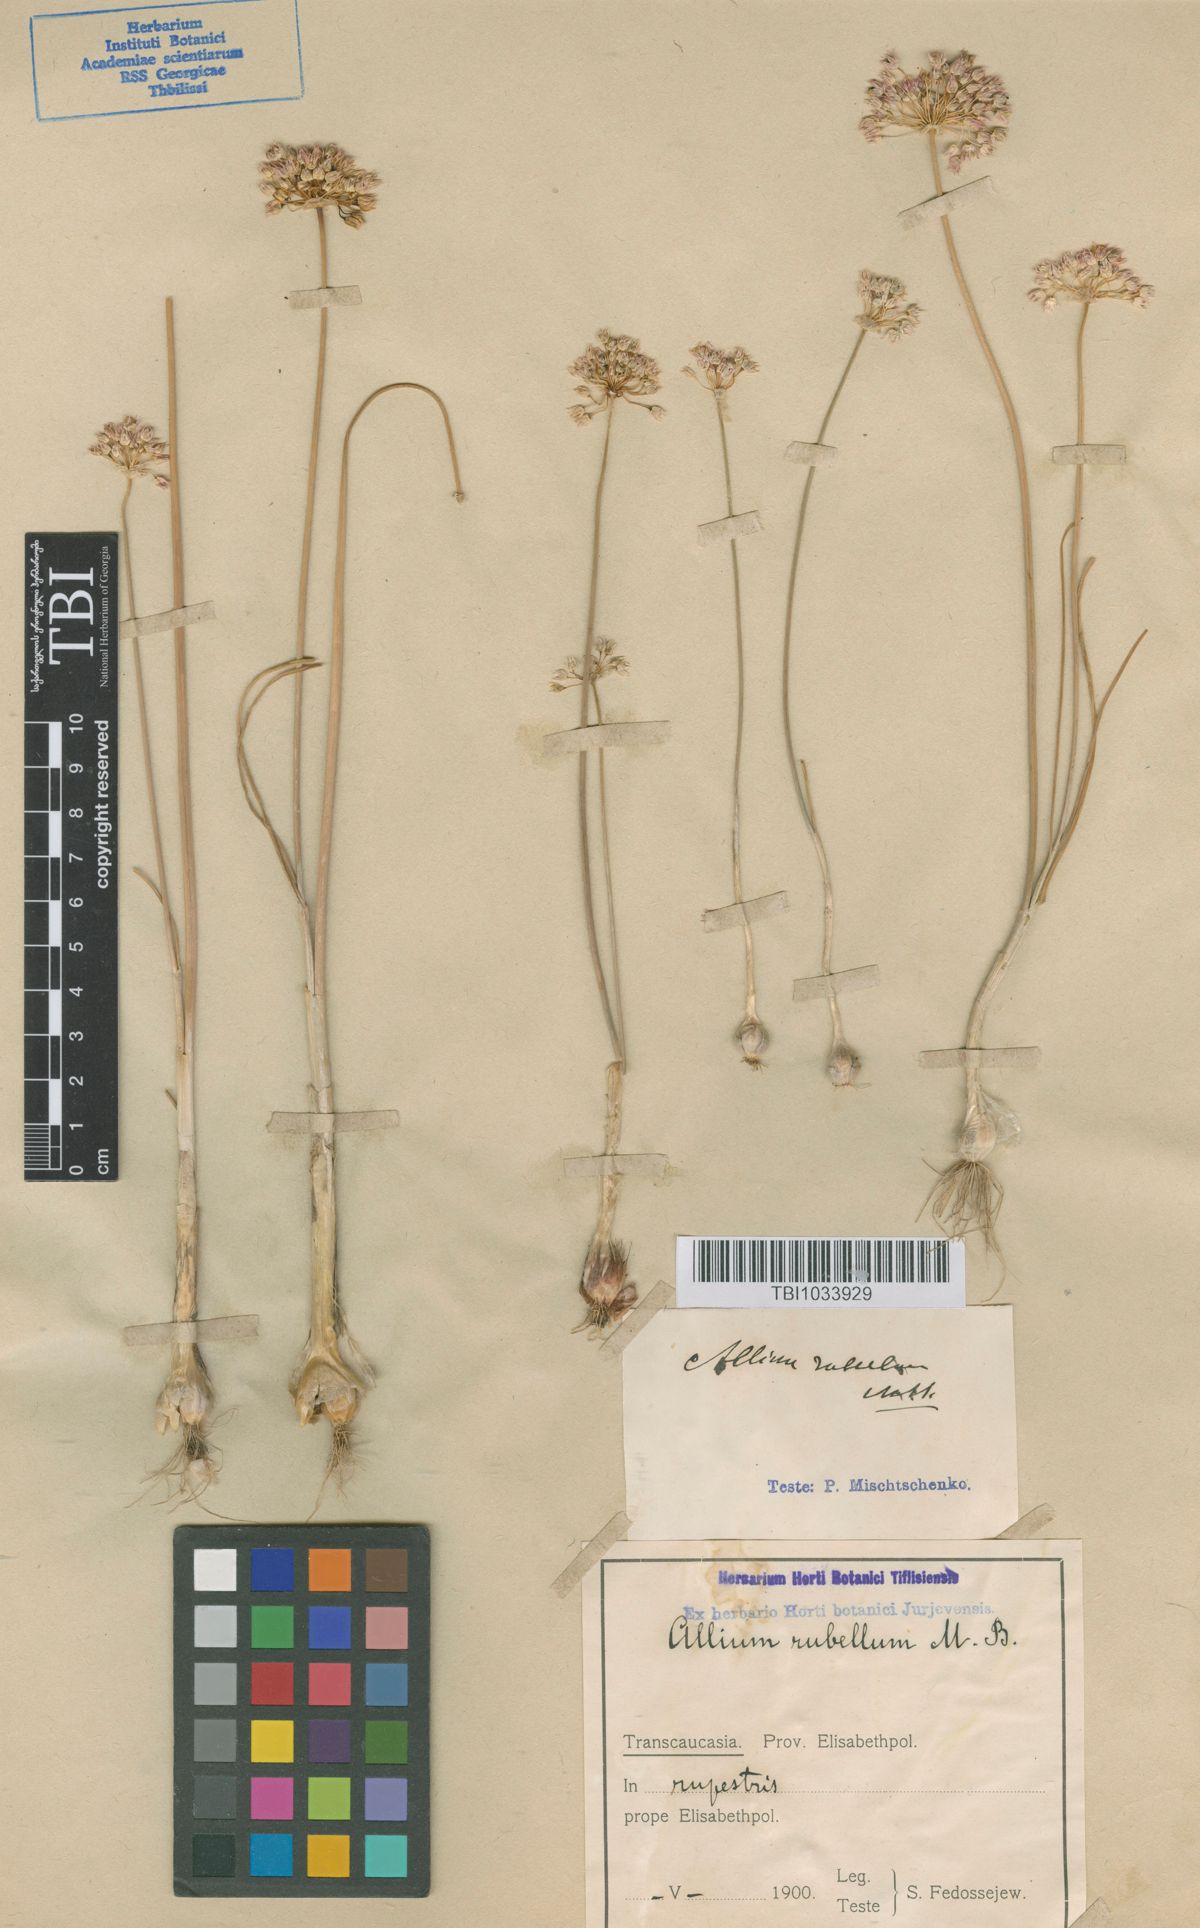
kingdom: Plantae
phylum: Tracheophyta
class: Liliopsida
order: Asparagales
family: Amaryllidaceae
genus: Allium
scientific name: Allium rubellum
